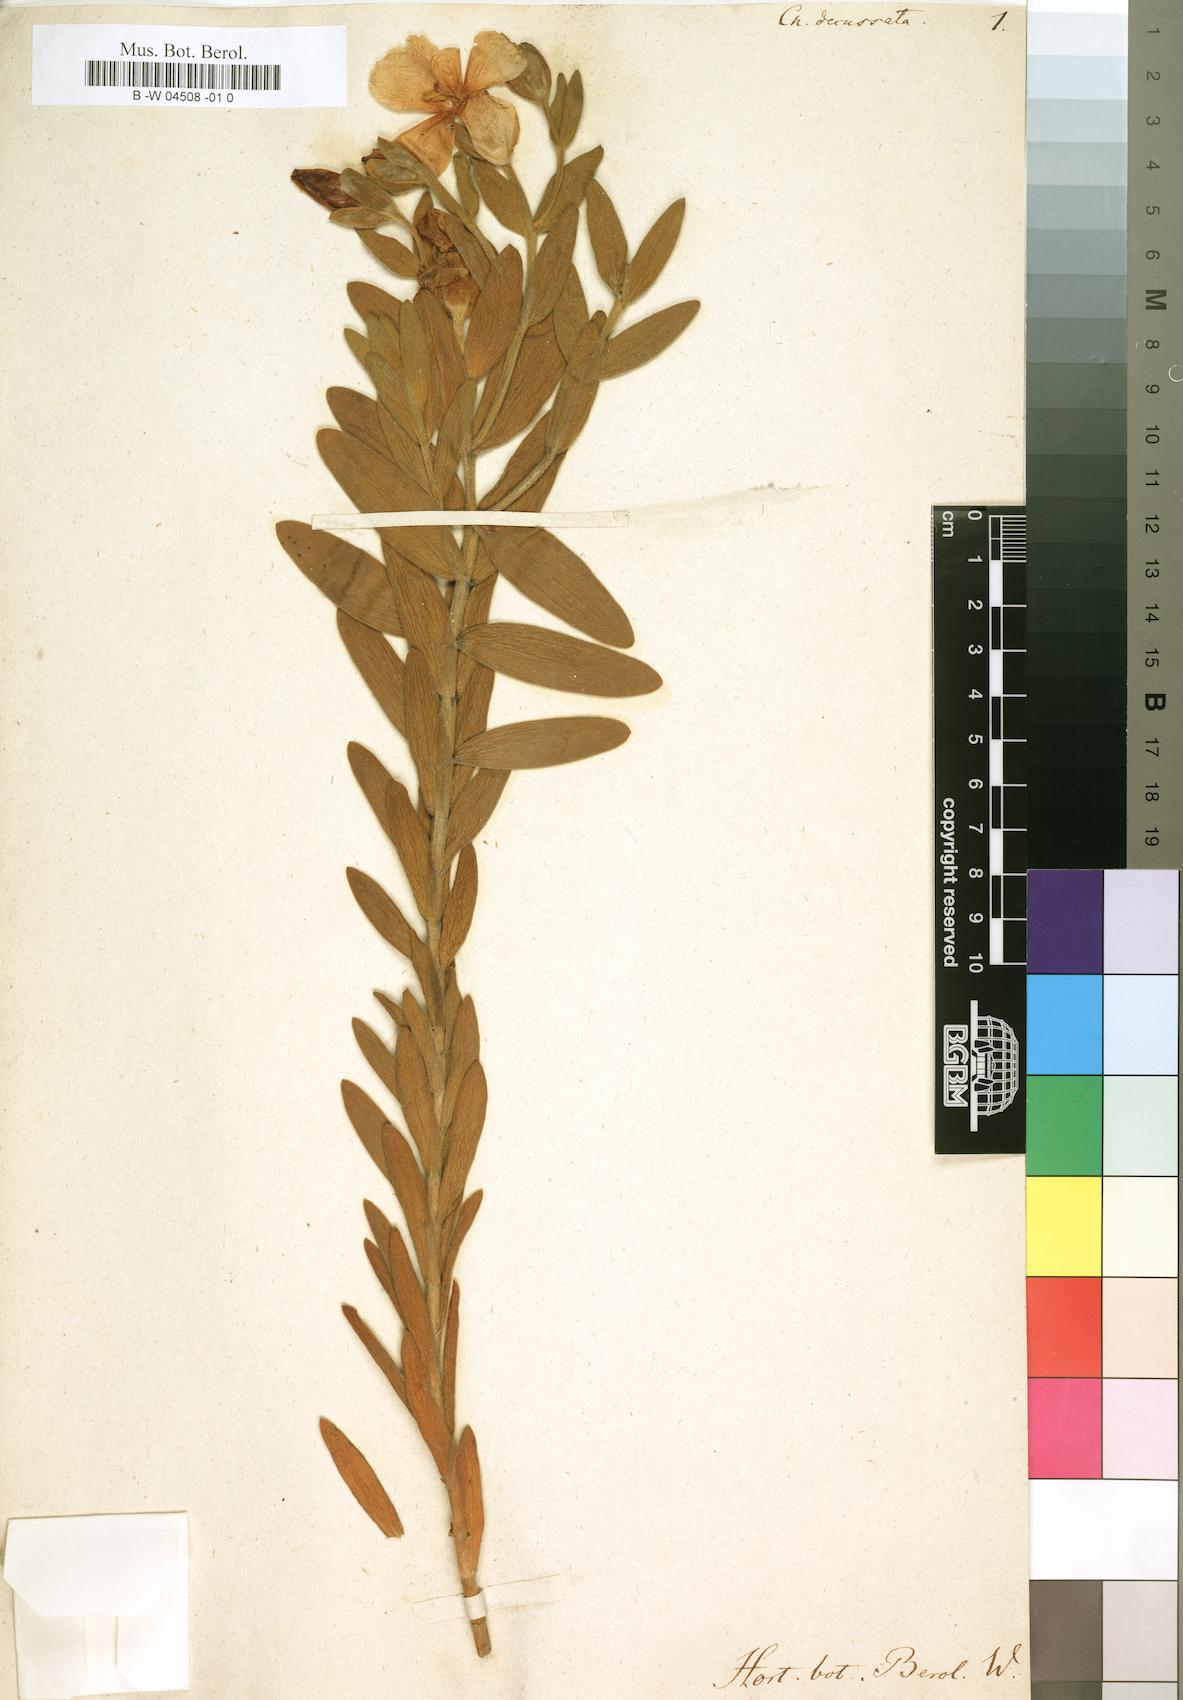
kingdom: Plantae
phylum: Tracheophyta
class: Magnoliopsida
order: Gentianales
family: Gentianaceae
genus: Orphium
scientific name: Orphium frutescens
